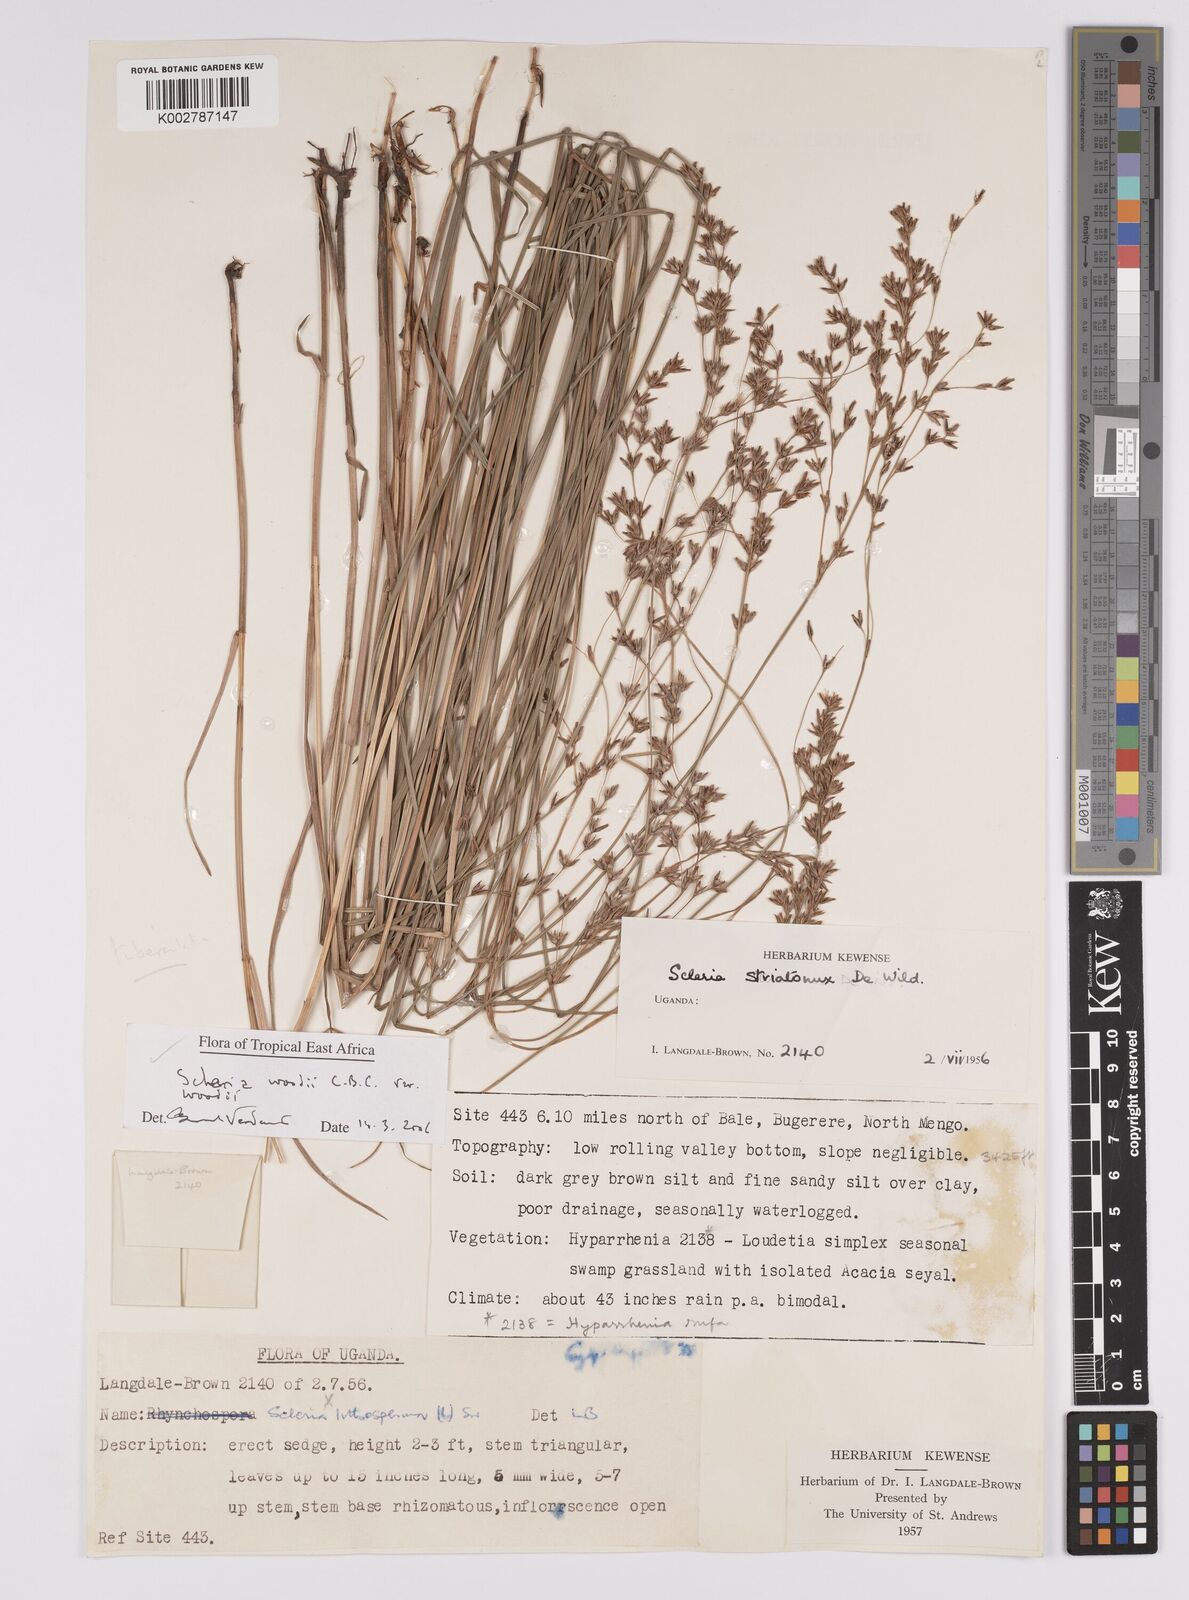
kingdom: Plantae
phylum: Tracheophyta
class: Liliopsida
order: Poales
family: Cyperaceae
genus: Scleria
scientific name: Scleria woodii
